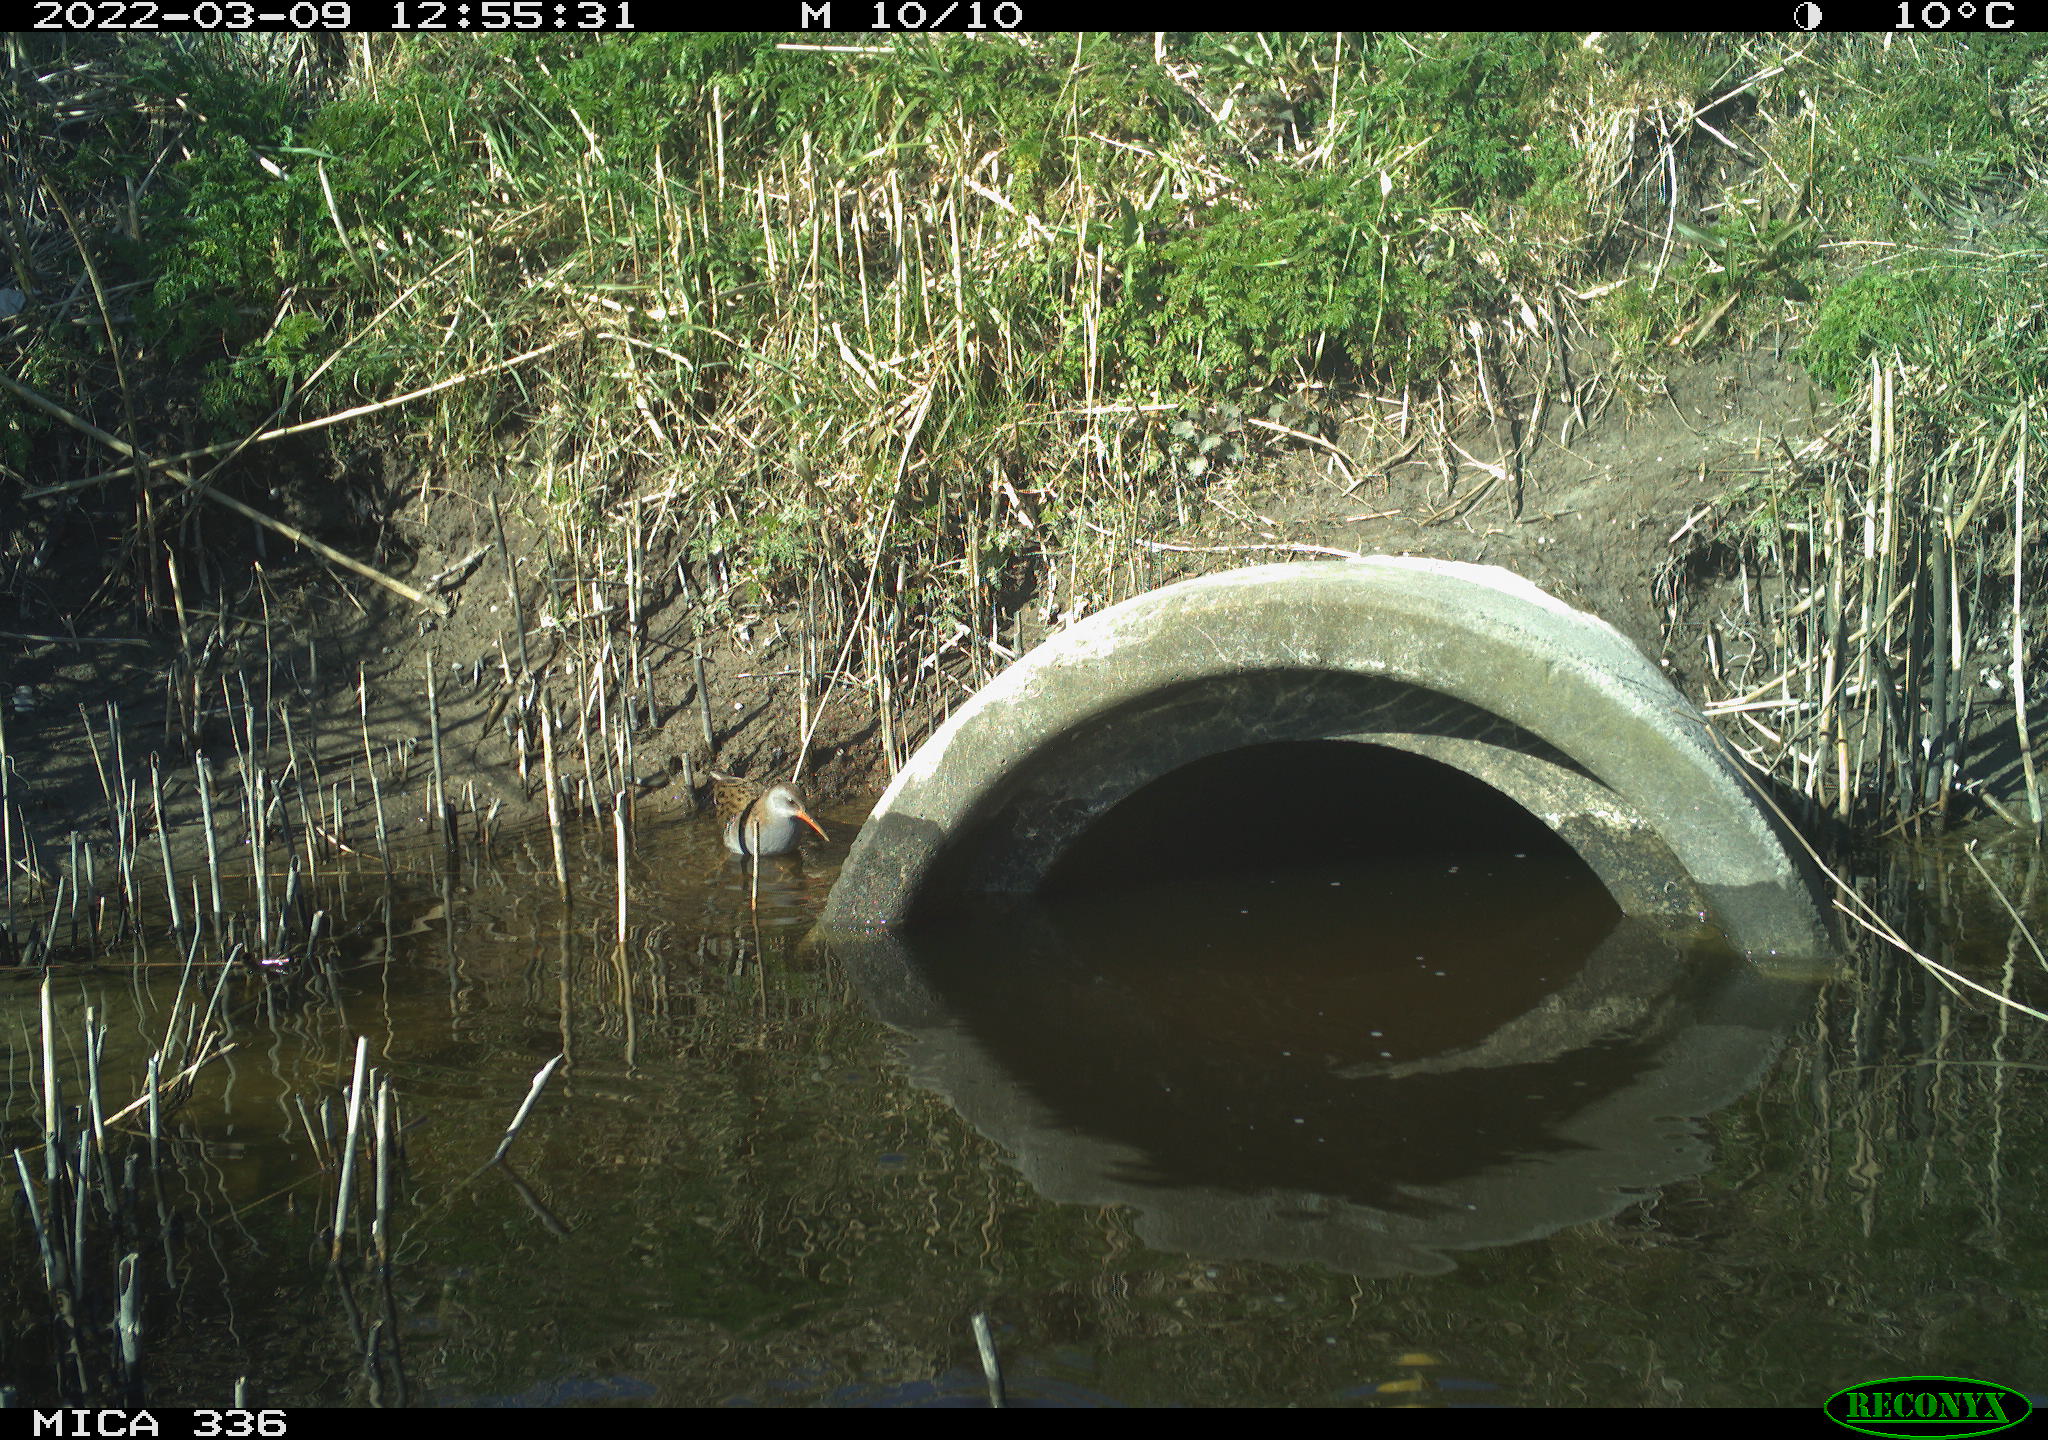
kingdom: Animalia
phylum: Chordata
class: Aves
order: Gruiformes
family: Rallidae
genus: Rallus
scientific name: Rallus aquaticus
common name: Water rail
